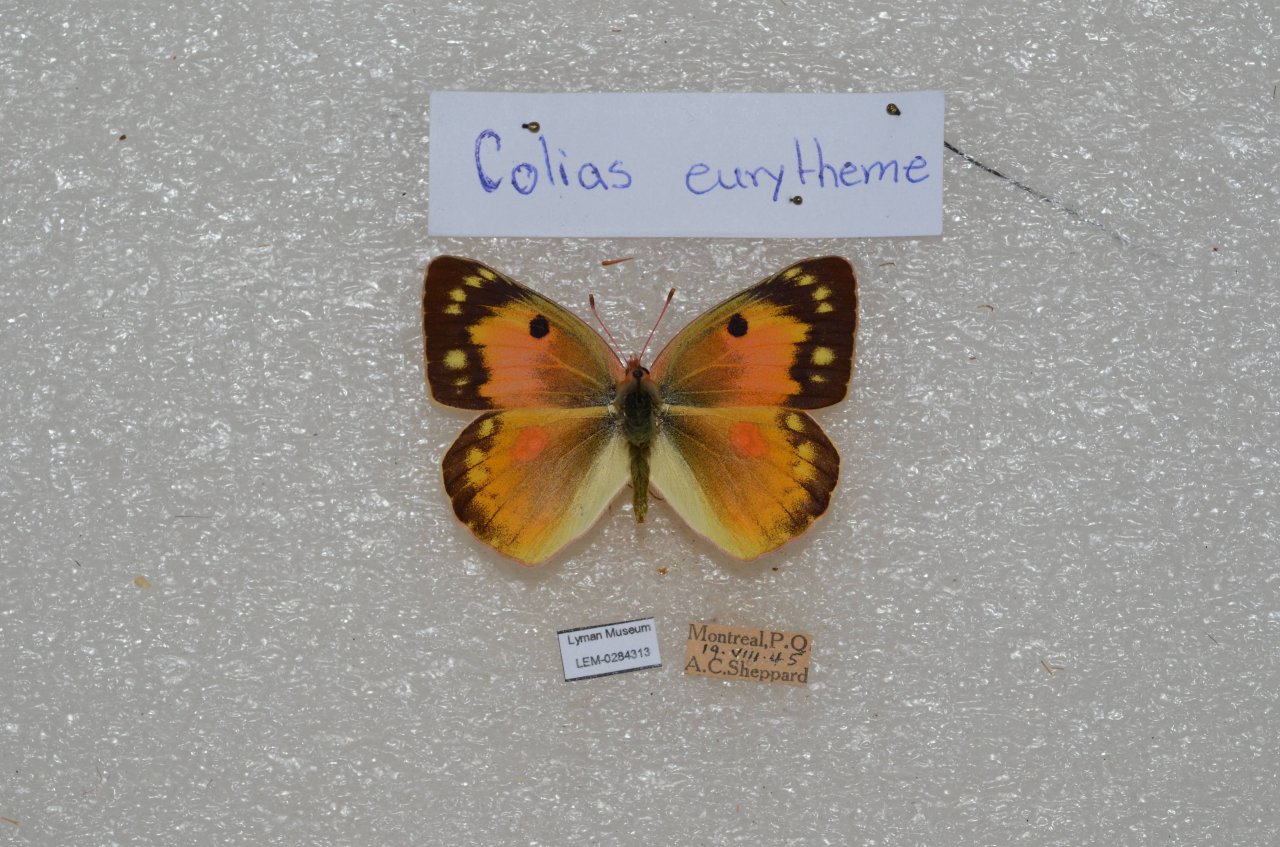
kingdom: Animalia
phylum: Arthropoda
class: Insecta
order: Lepidoptera
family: Pieridae
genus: Colias
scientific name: Colias eurytheme
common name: Orange Sulphur
